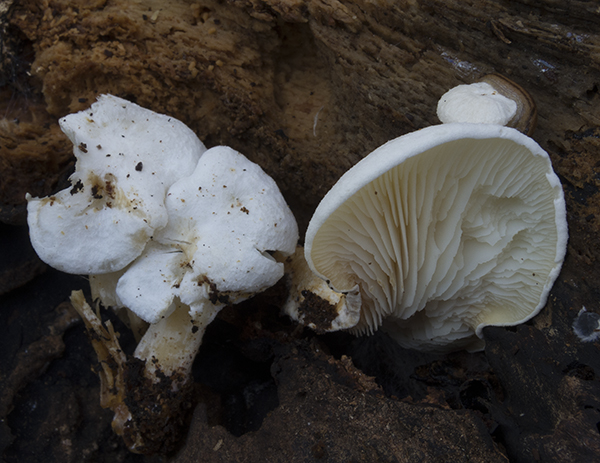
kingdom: Fungi
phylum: Basidiomycota
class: Agaricomycetes
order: Agaricales
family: Lyophyllaceae
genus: Ossicaulis
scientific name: Ossicaulis lignatilis
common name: hvidlig vedtragthat
